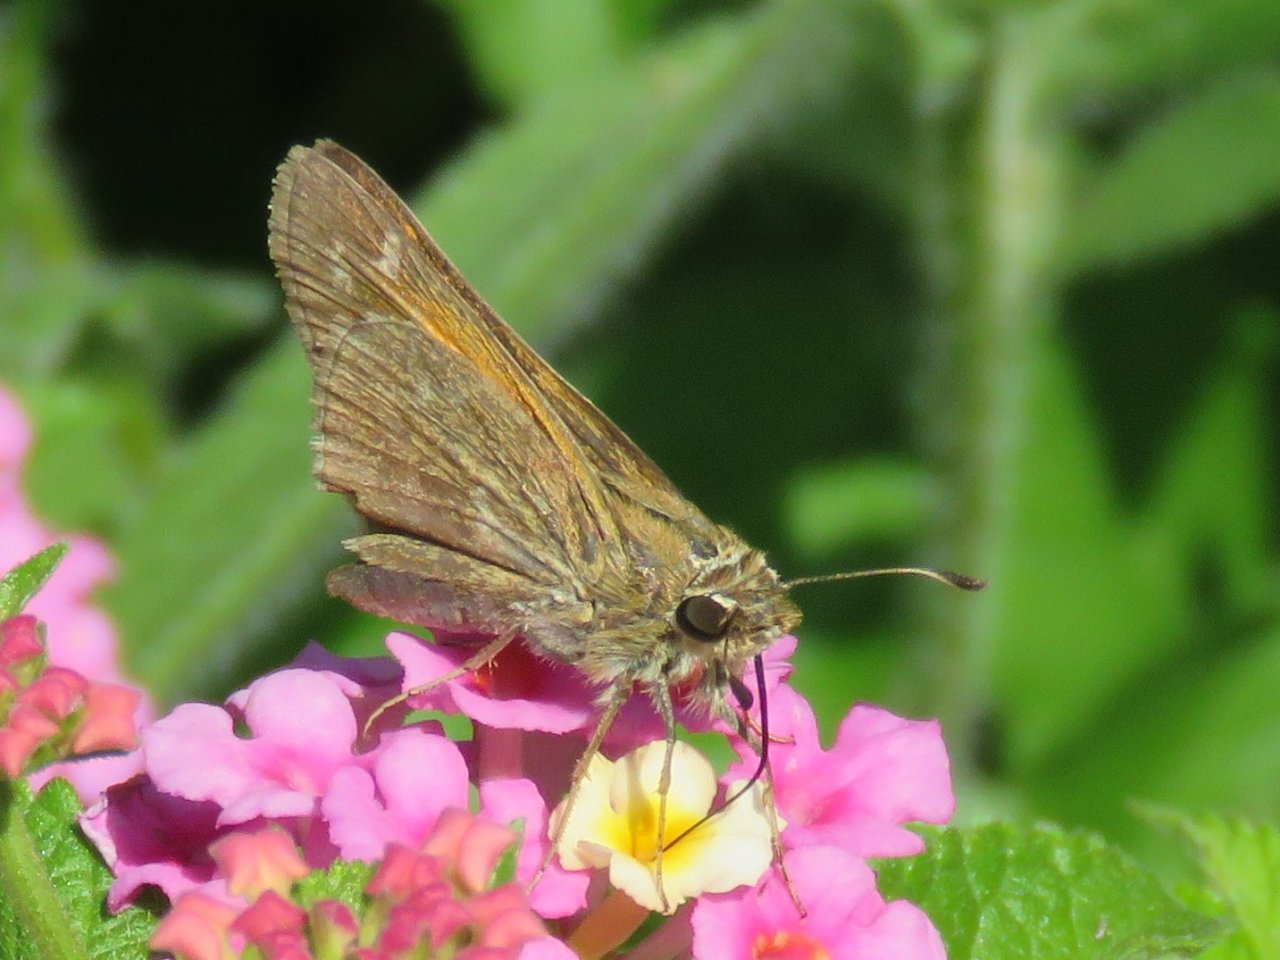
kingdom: Animalia
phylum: Arthropoda
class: Insecta
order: Lepidoptera
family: Hesperiidae
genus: Atalopedes
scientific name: Atalopedes campestris
